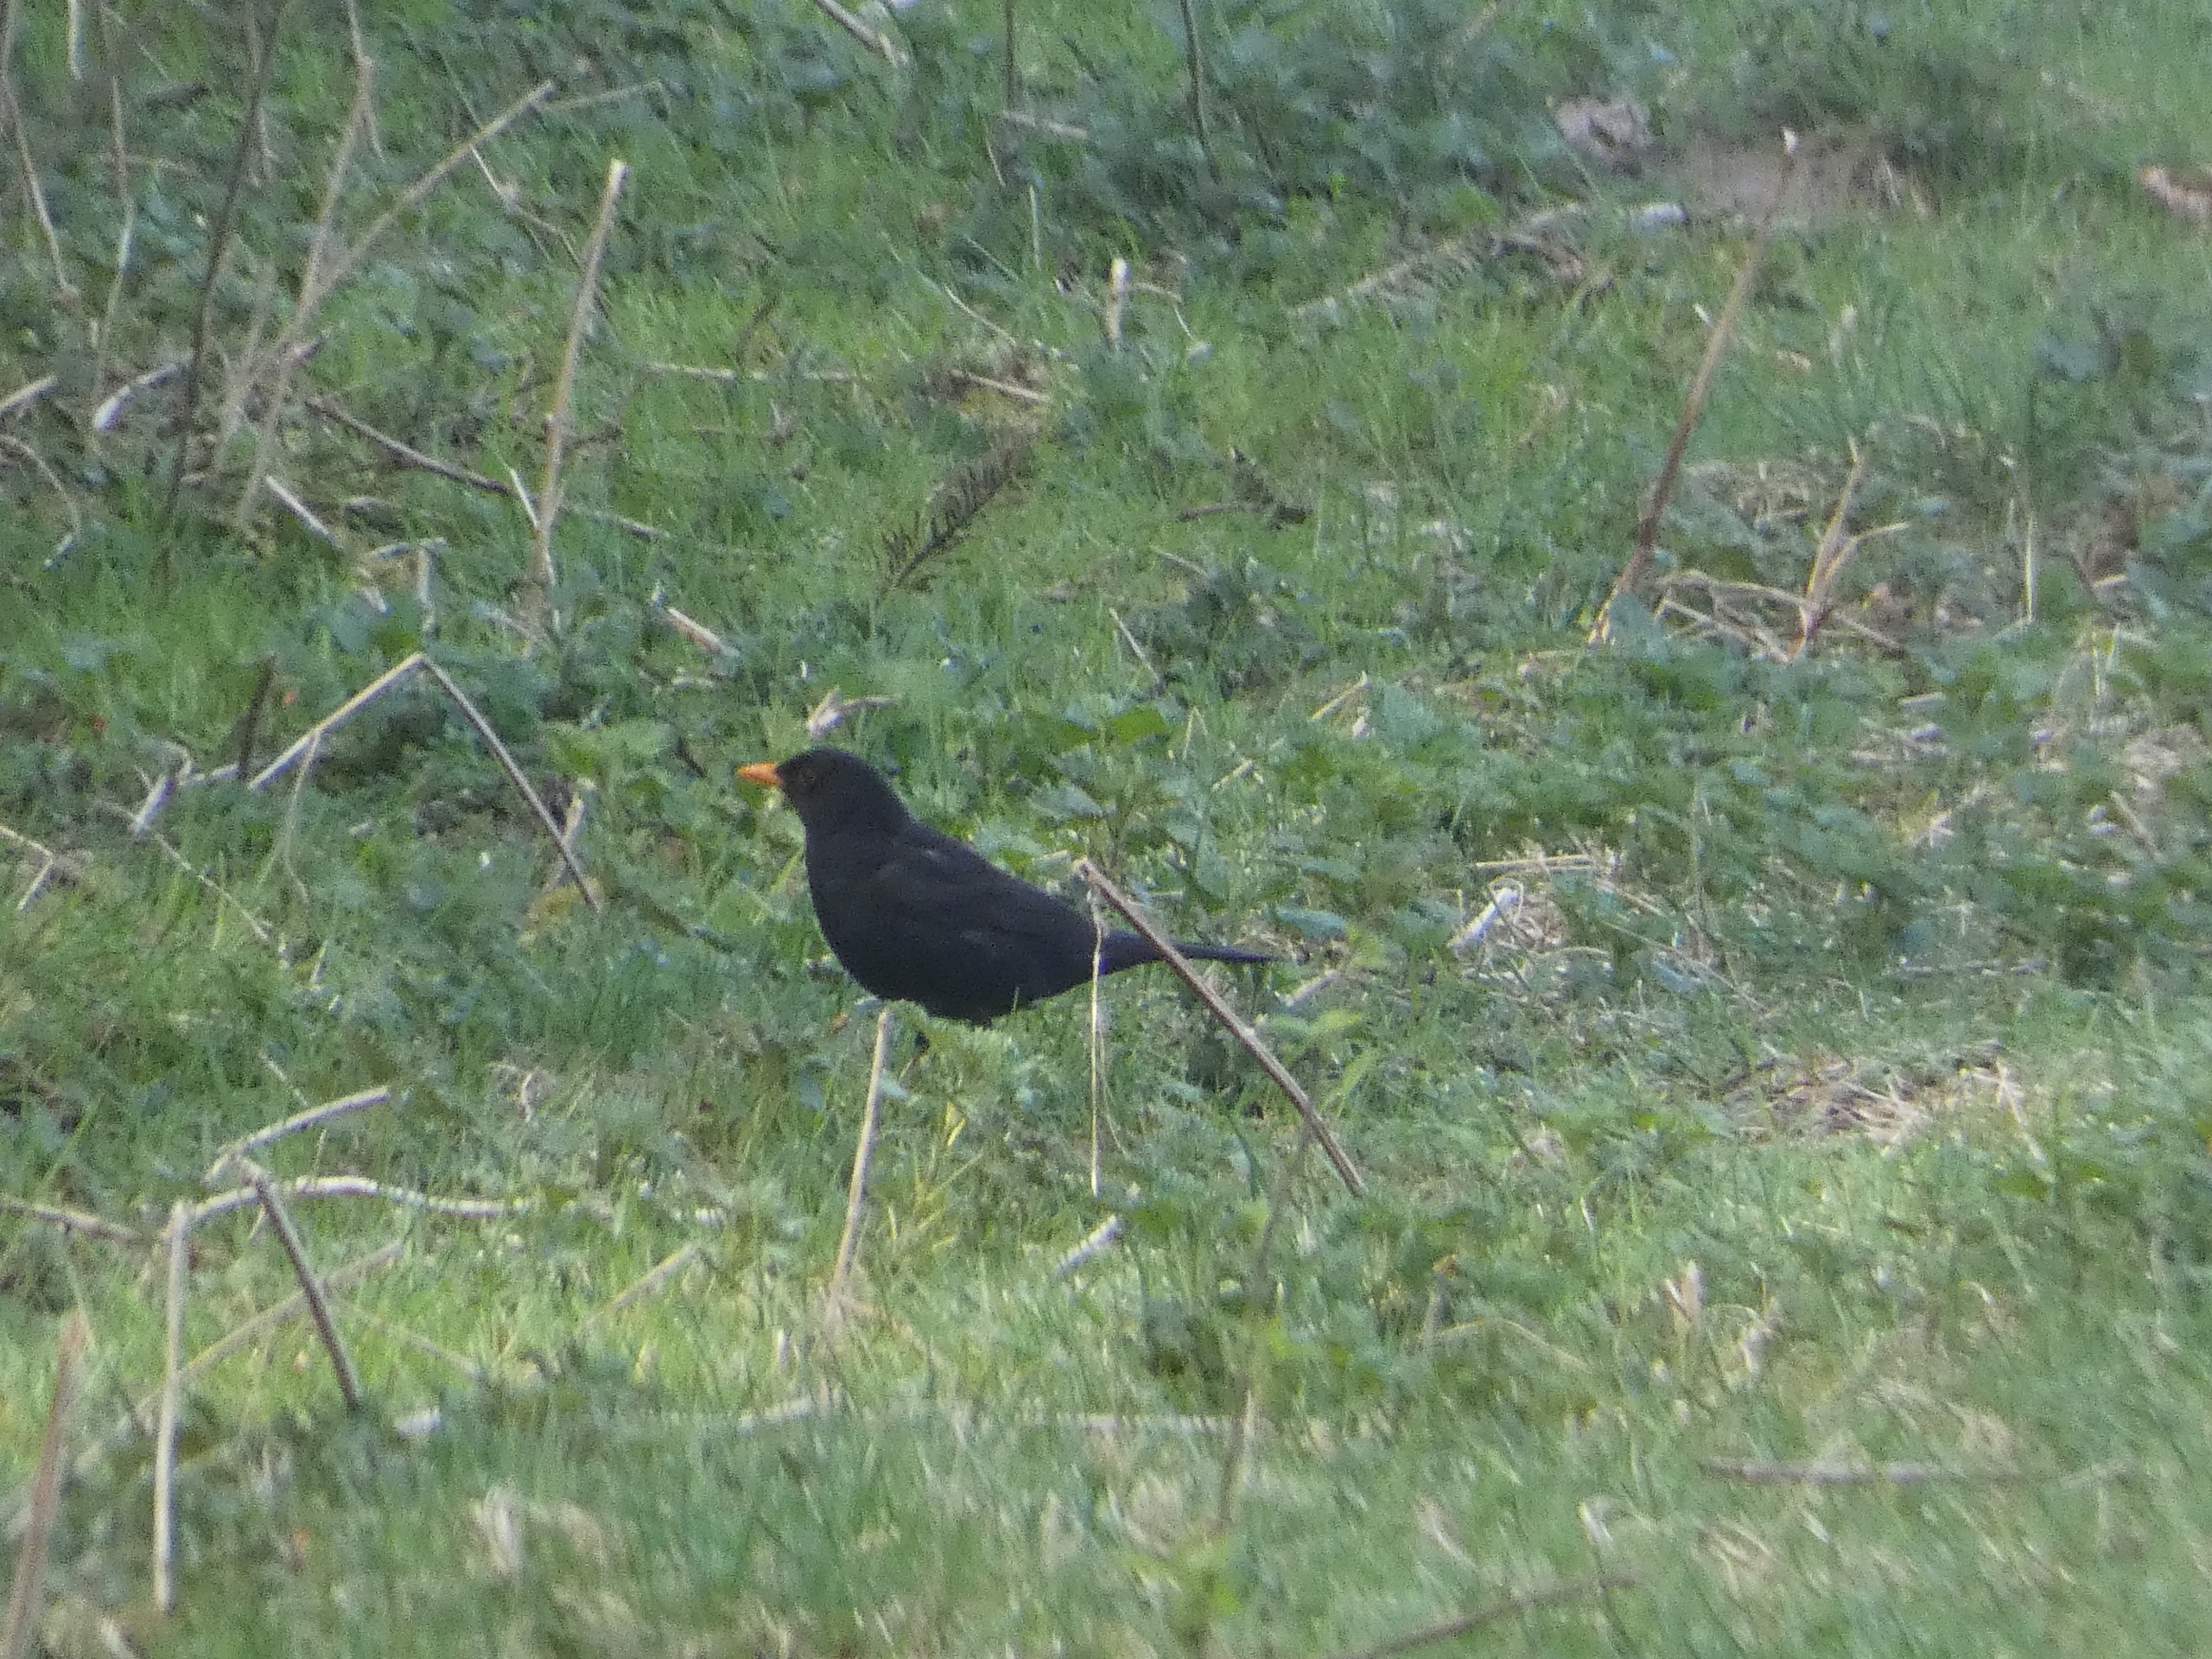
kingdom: Animalia
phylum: Chordata
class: Aves
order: Passeriformes
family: Turdidae
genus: Turdus
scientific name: Turdus merula
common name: Solsort
